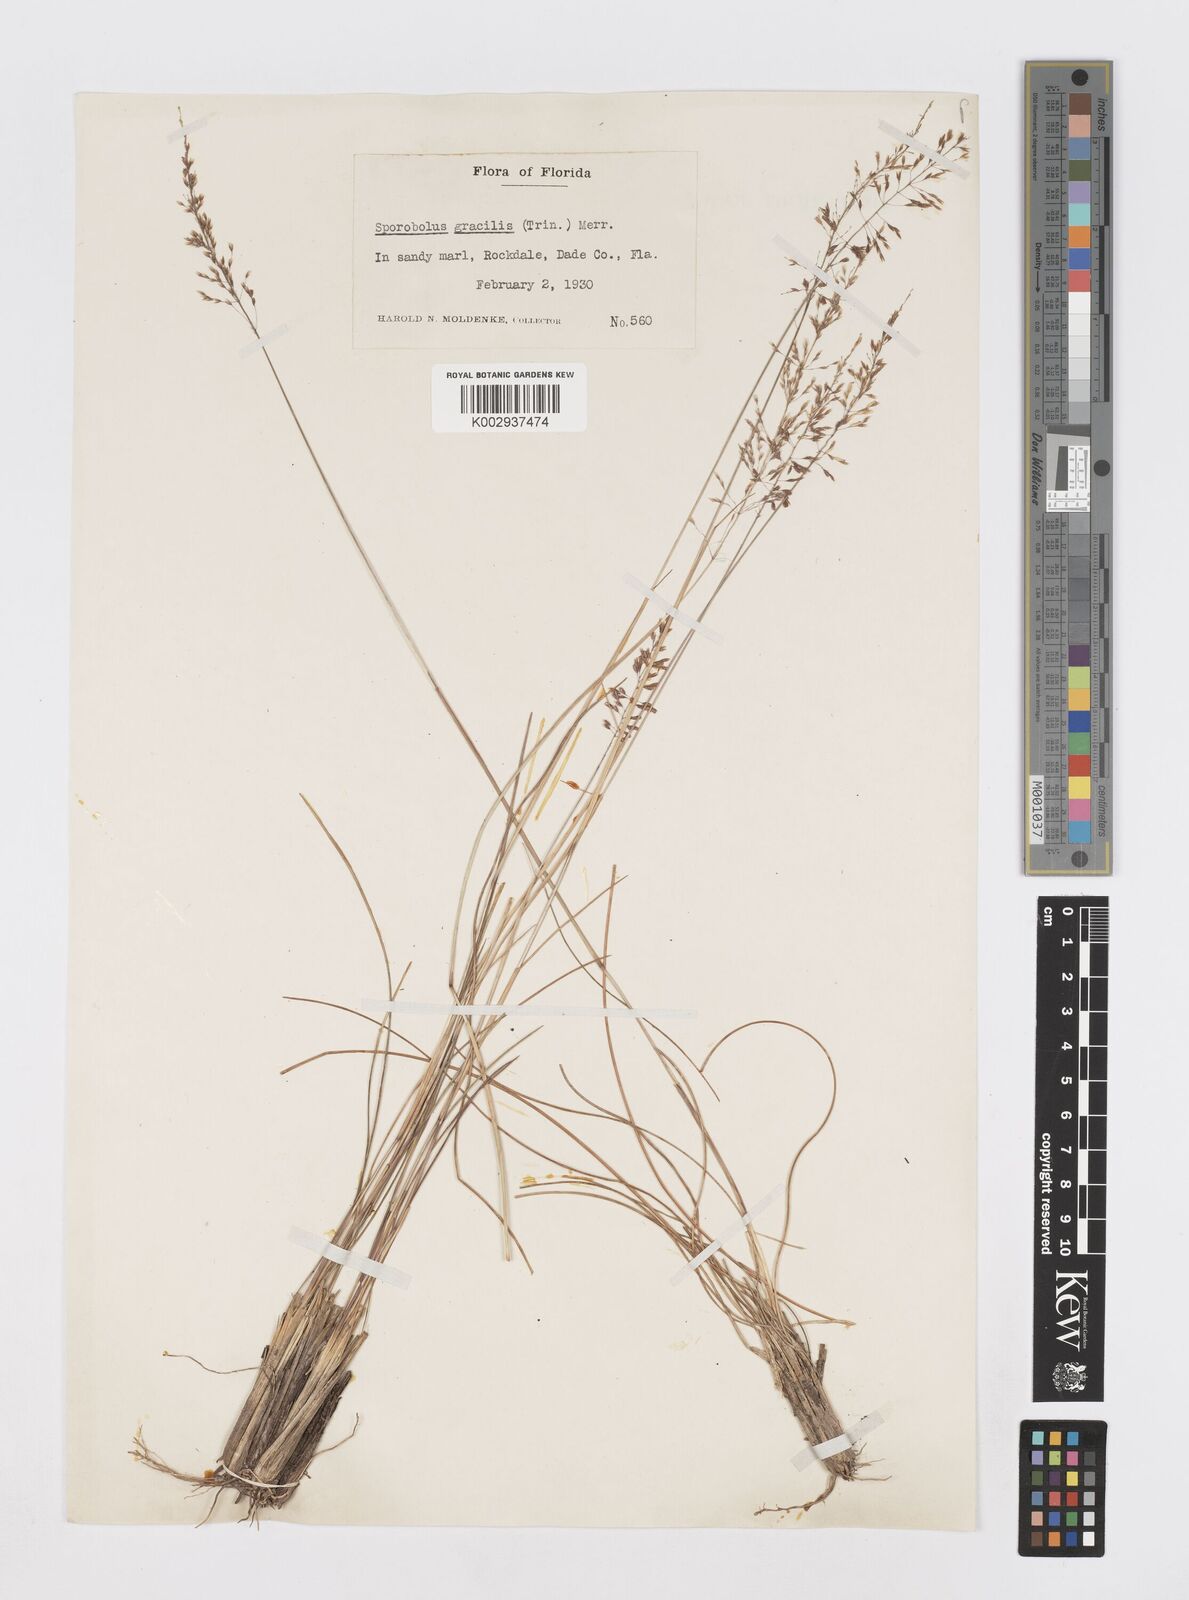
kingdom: Plantae
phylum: Tracheophyta
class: Liliopsida
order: Poales
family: Poaceae
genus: Sporobolus
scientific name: Sporobolus junceus
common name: Lizard grass
